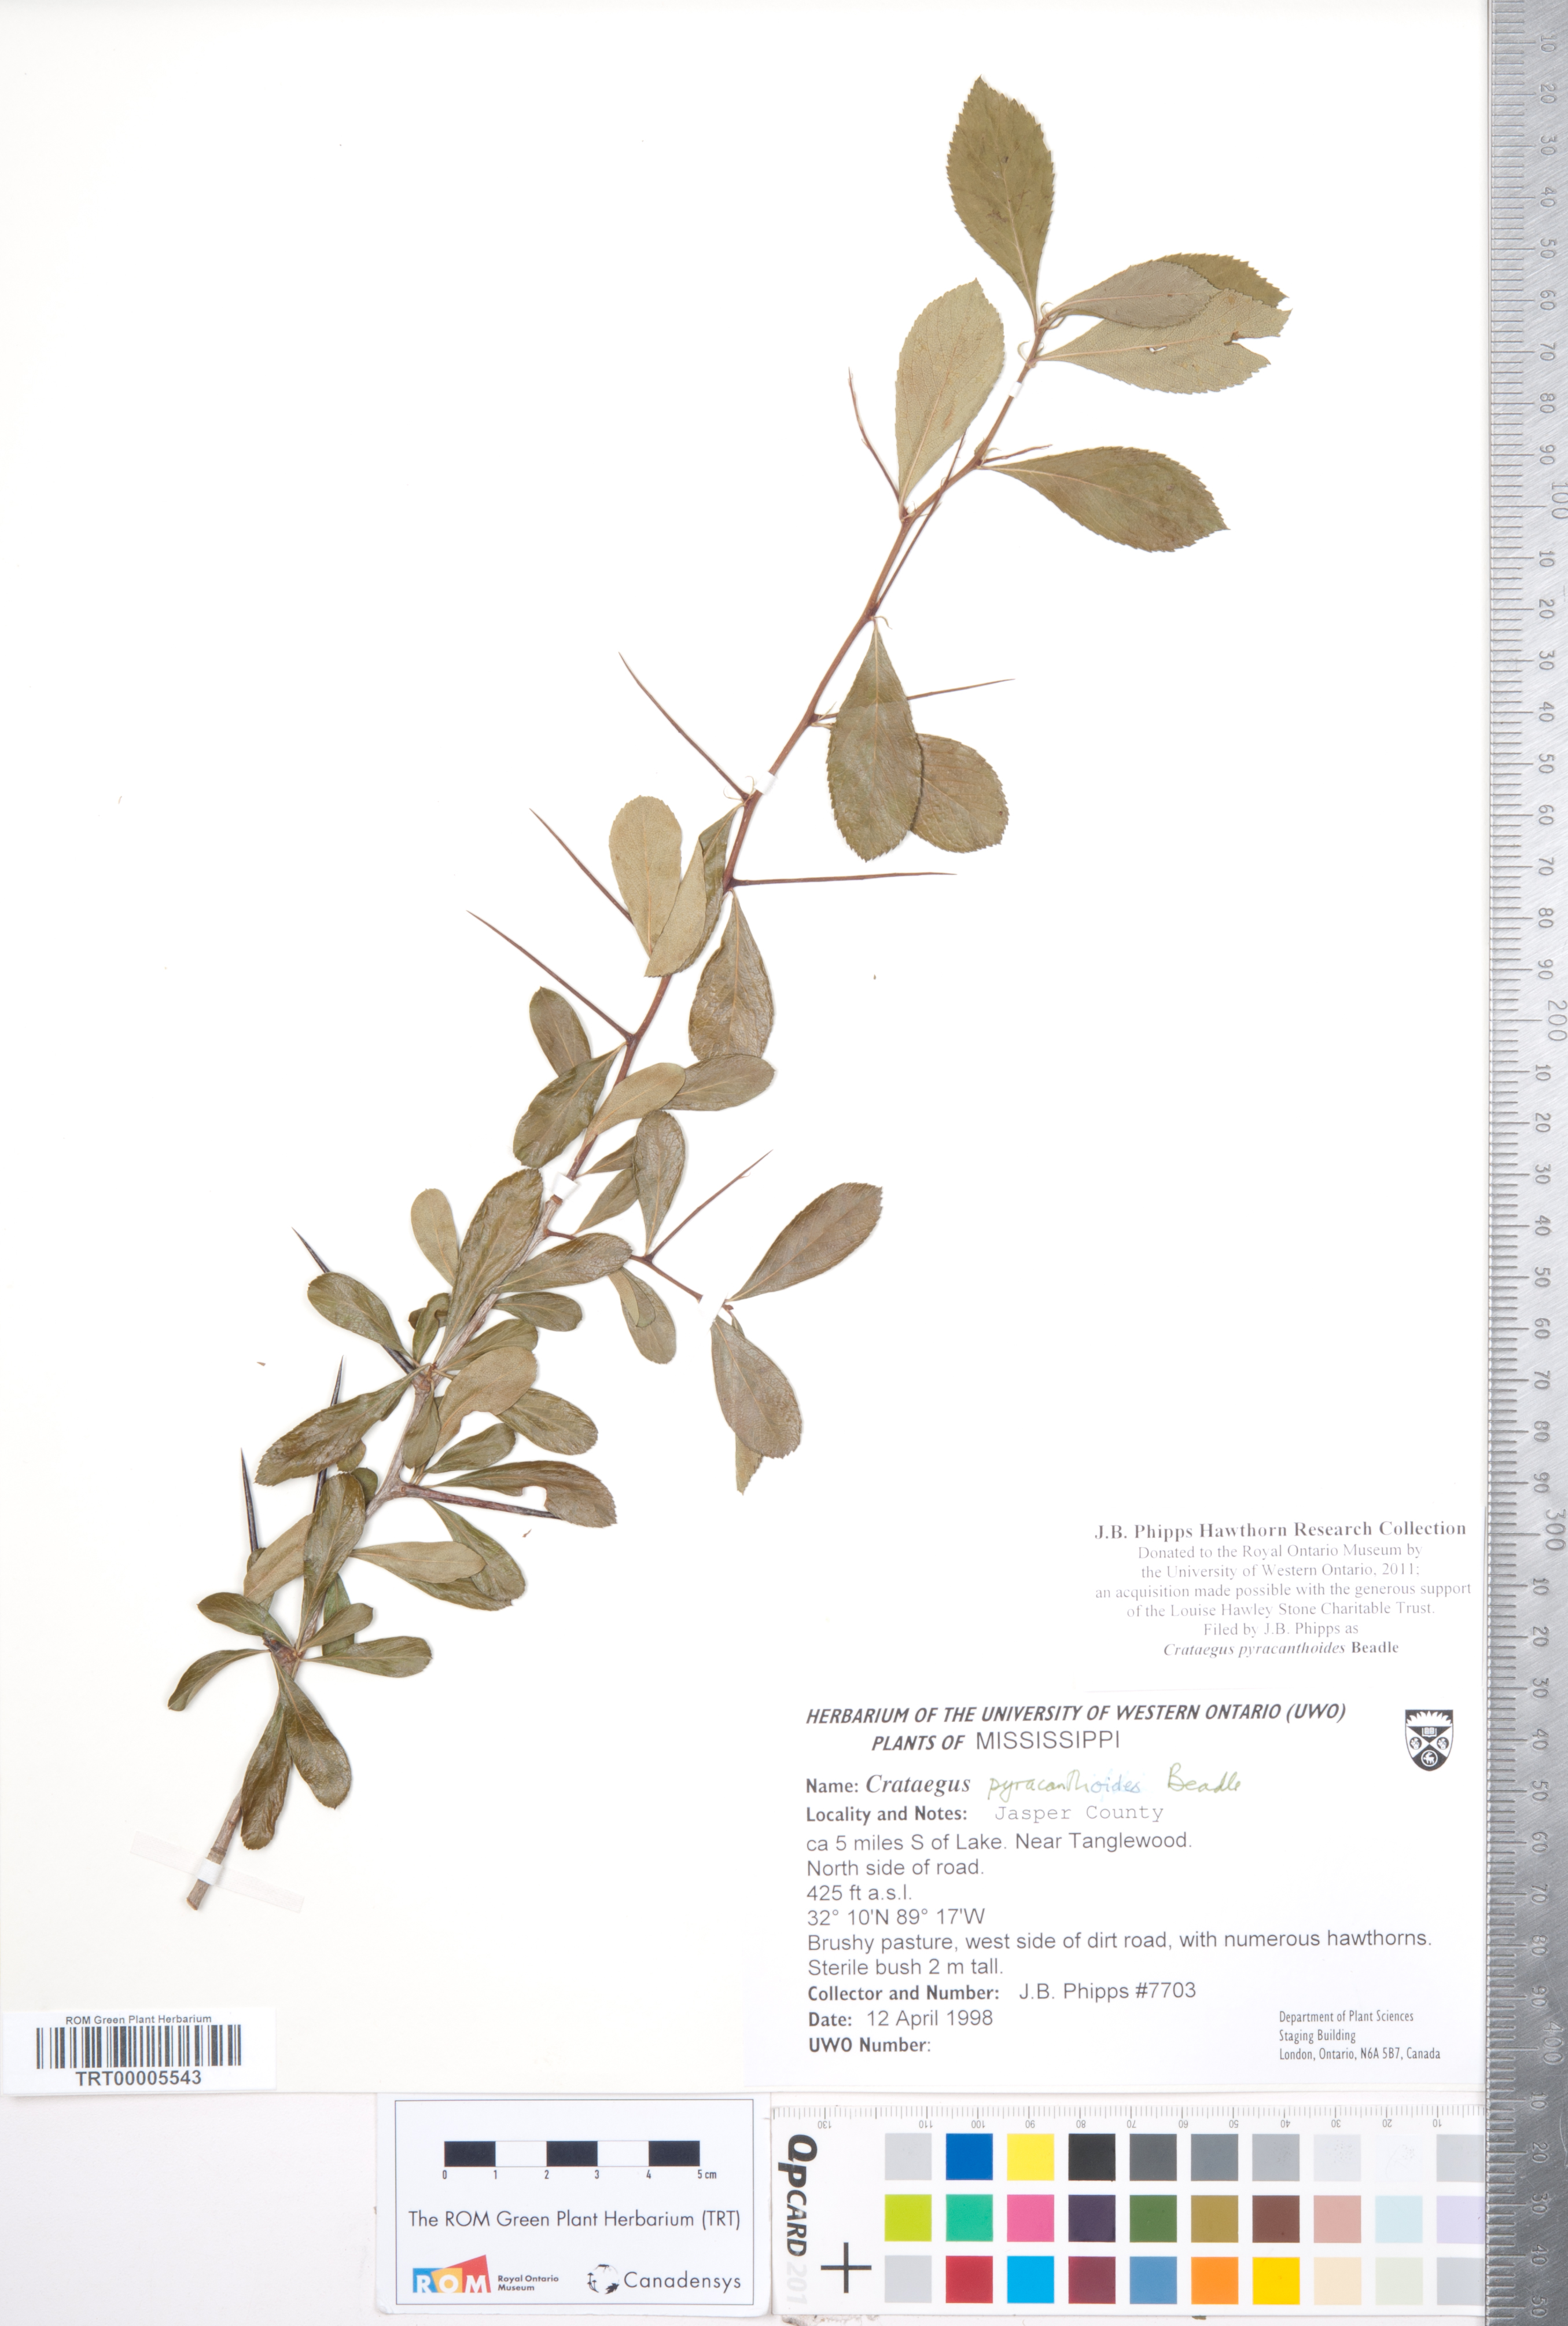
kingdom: Plantae
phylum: Tracheophyta
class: Magnoliopsida
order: Rosales
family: Rosaceae
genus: Crataegus
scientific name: Crataegus crus-galli
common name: Cockspurthorn
